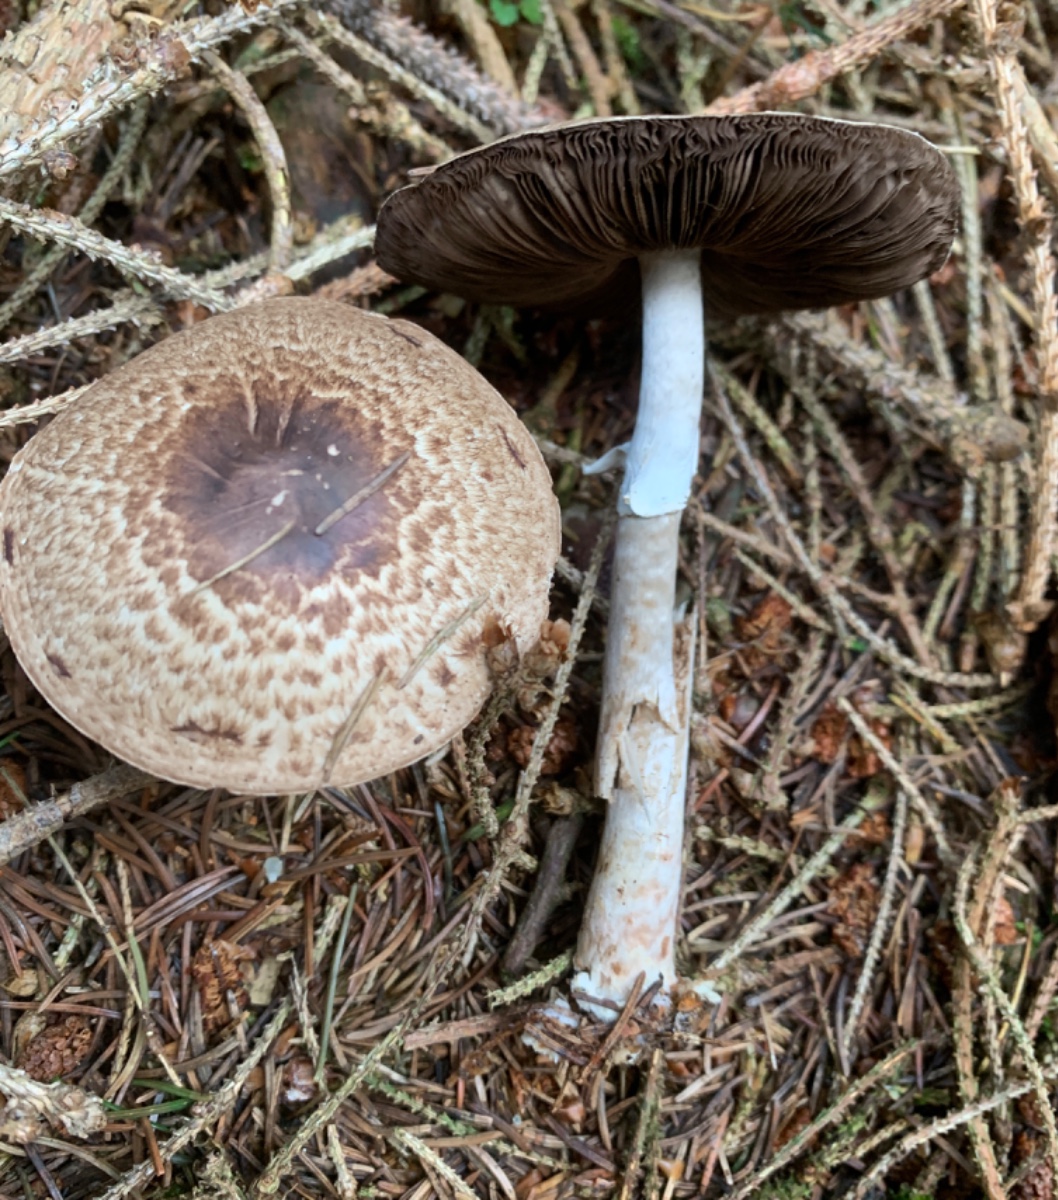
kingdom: Fungi
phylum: Basidiomycota
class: Agaricomycetes
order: Agaricales
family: Agaricaceae
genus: Agaricus
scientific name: Agaricus impudicus
